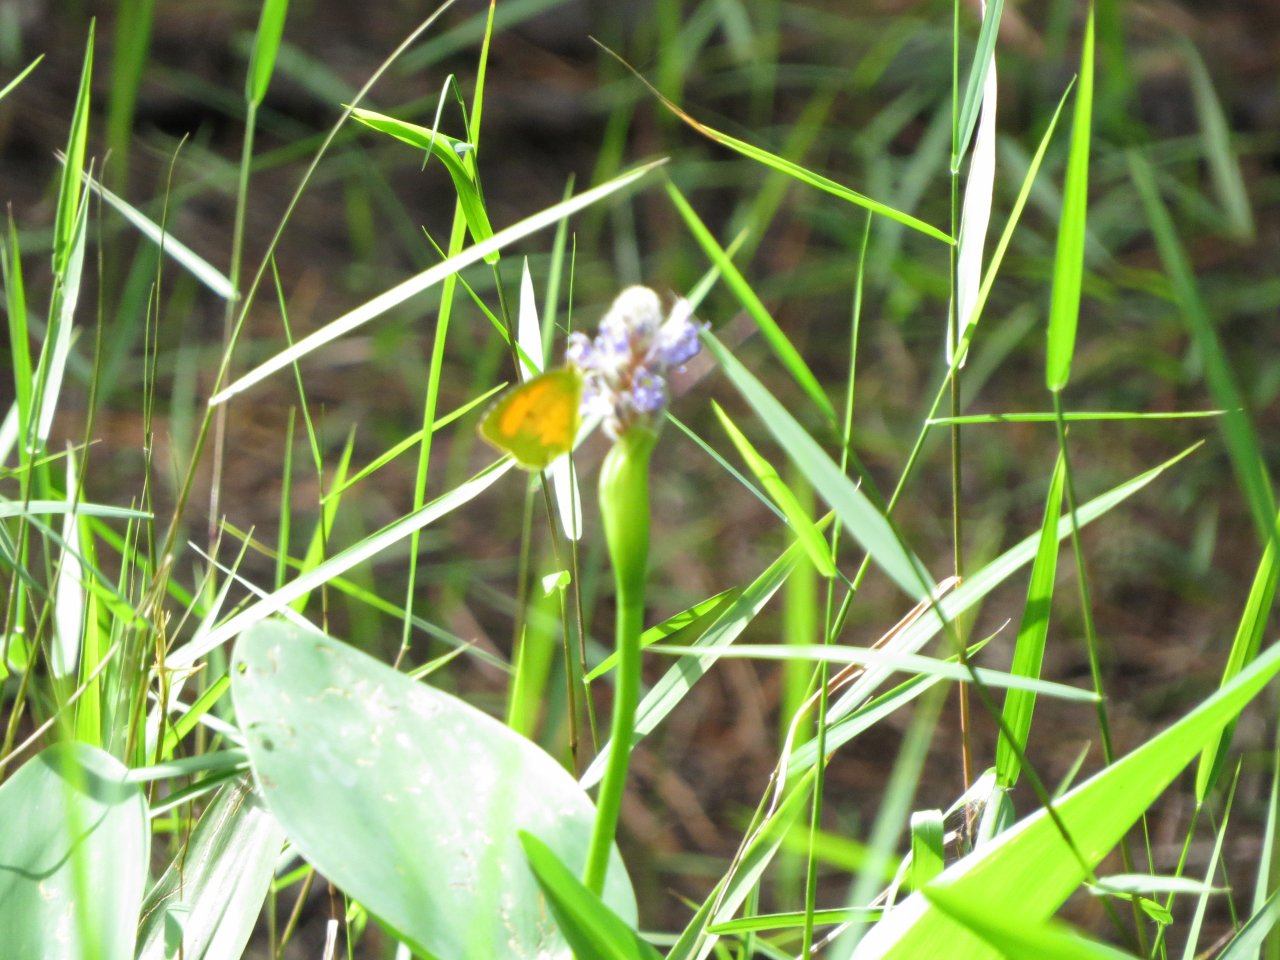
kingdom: Animalia
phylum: Arthropoda
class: Insecta
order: Lepidoptera
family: Pieridae
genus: Abaeis
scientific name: Abaeis nicippe
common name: Sleepy Orange
